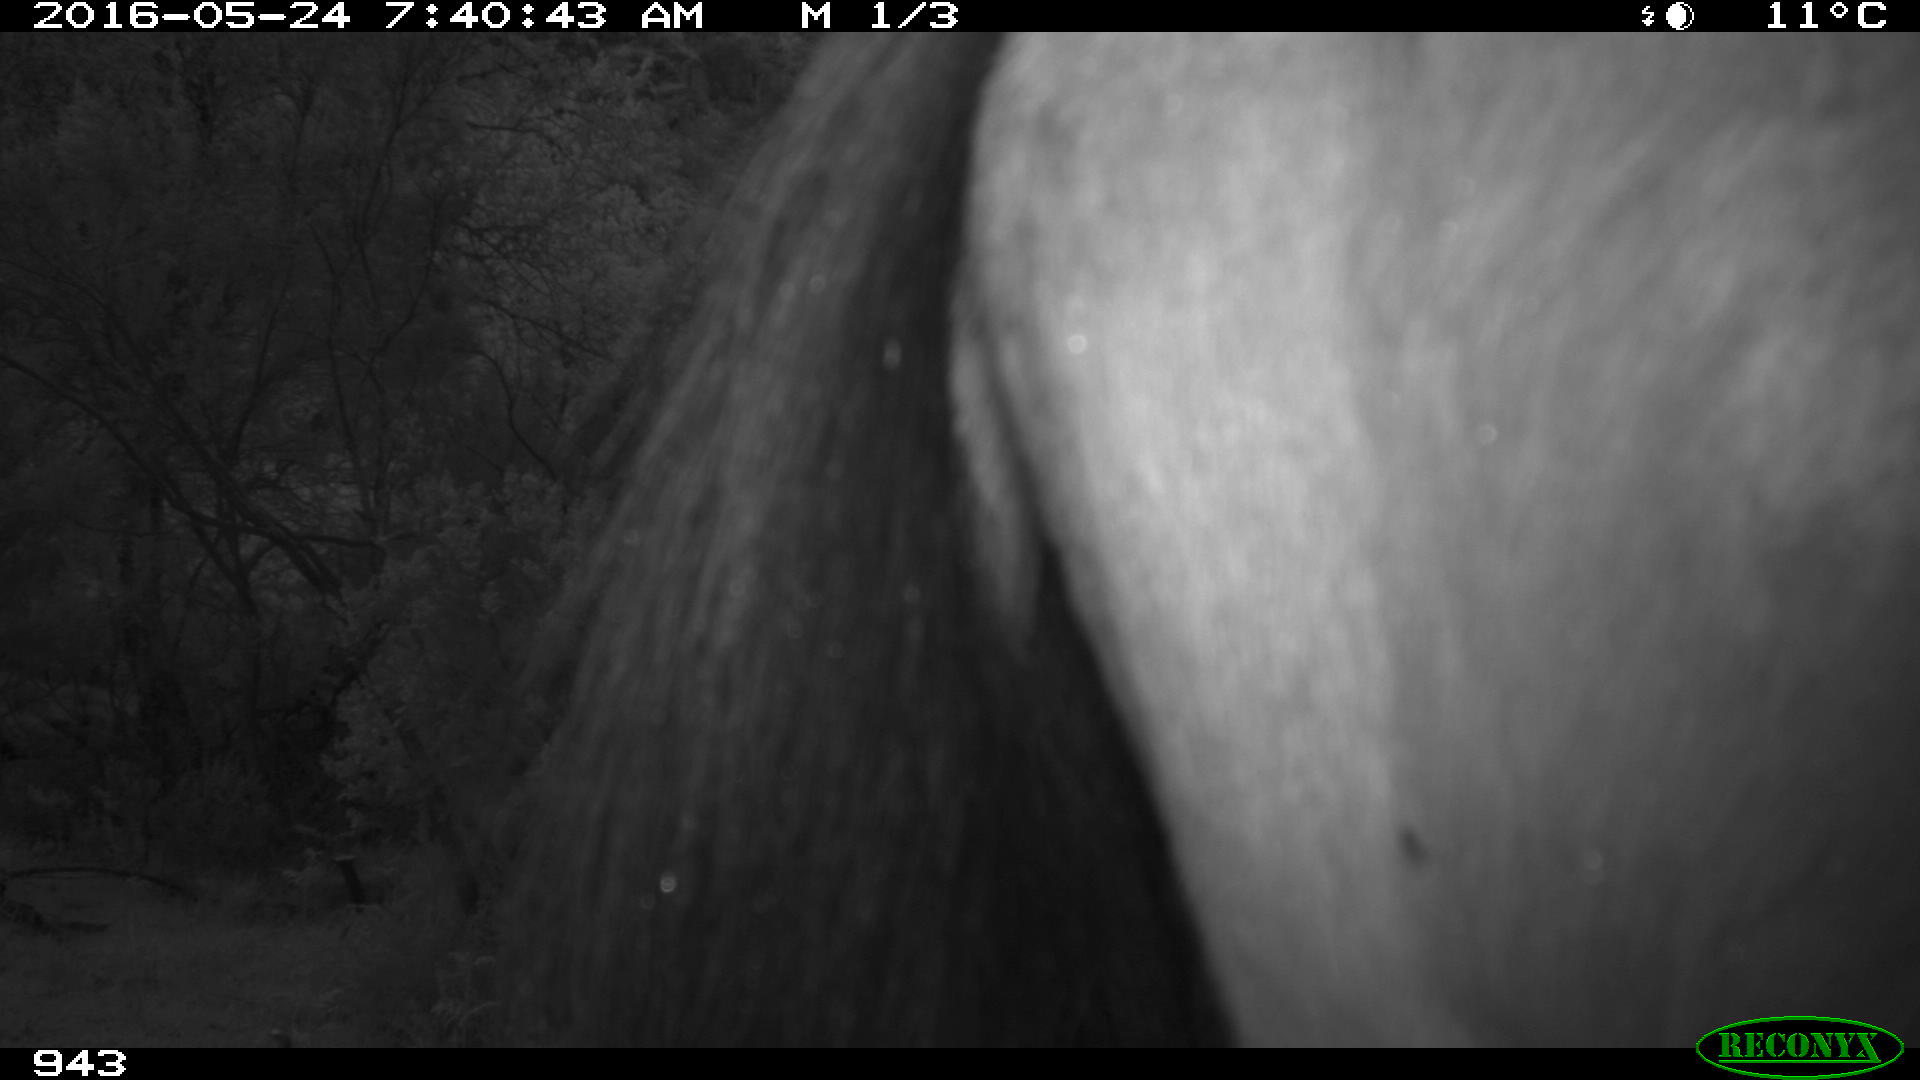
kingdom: Animalia
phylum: Chordata
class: Mammalia
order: Perissodactyla
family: Equidae
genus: Equus
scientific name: Equus caballus
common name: Horse
